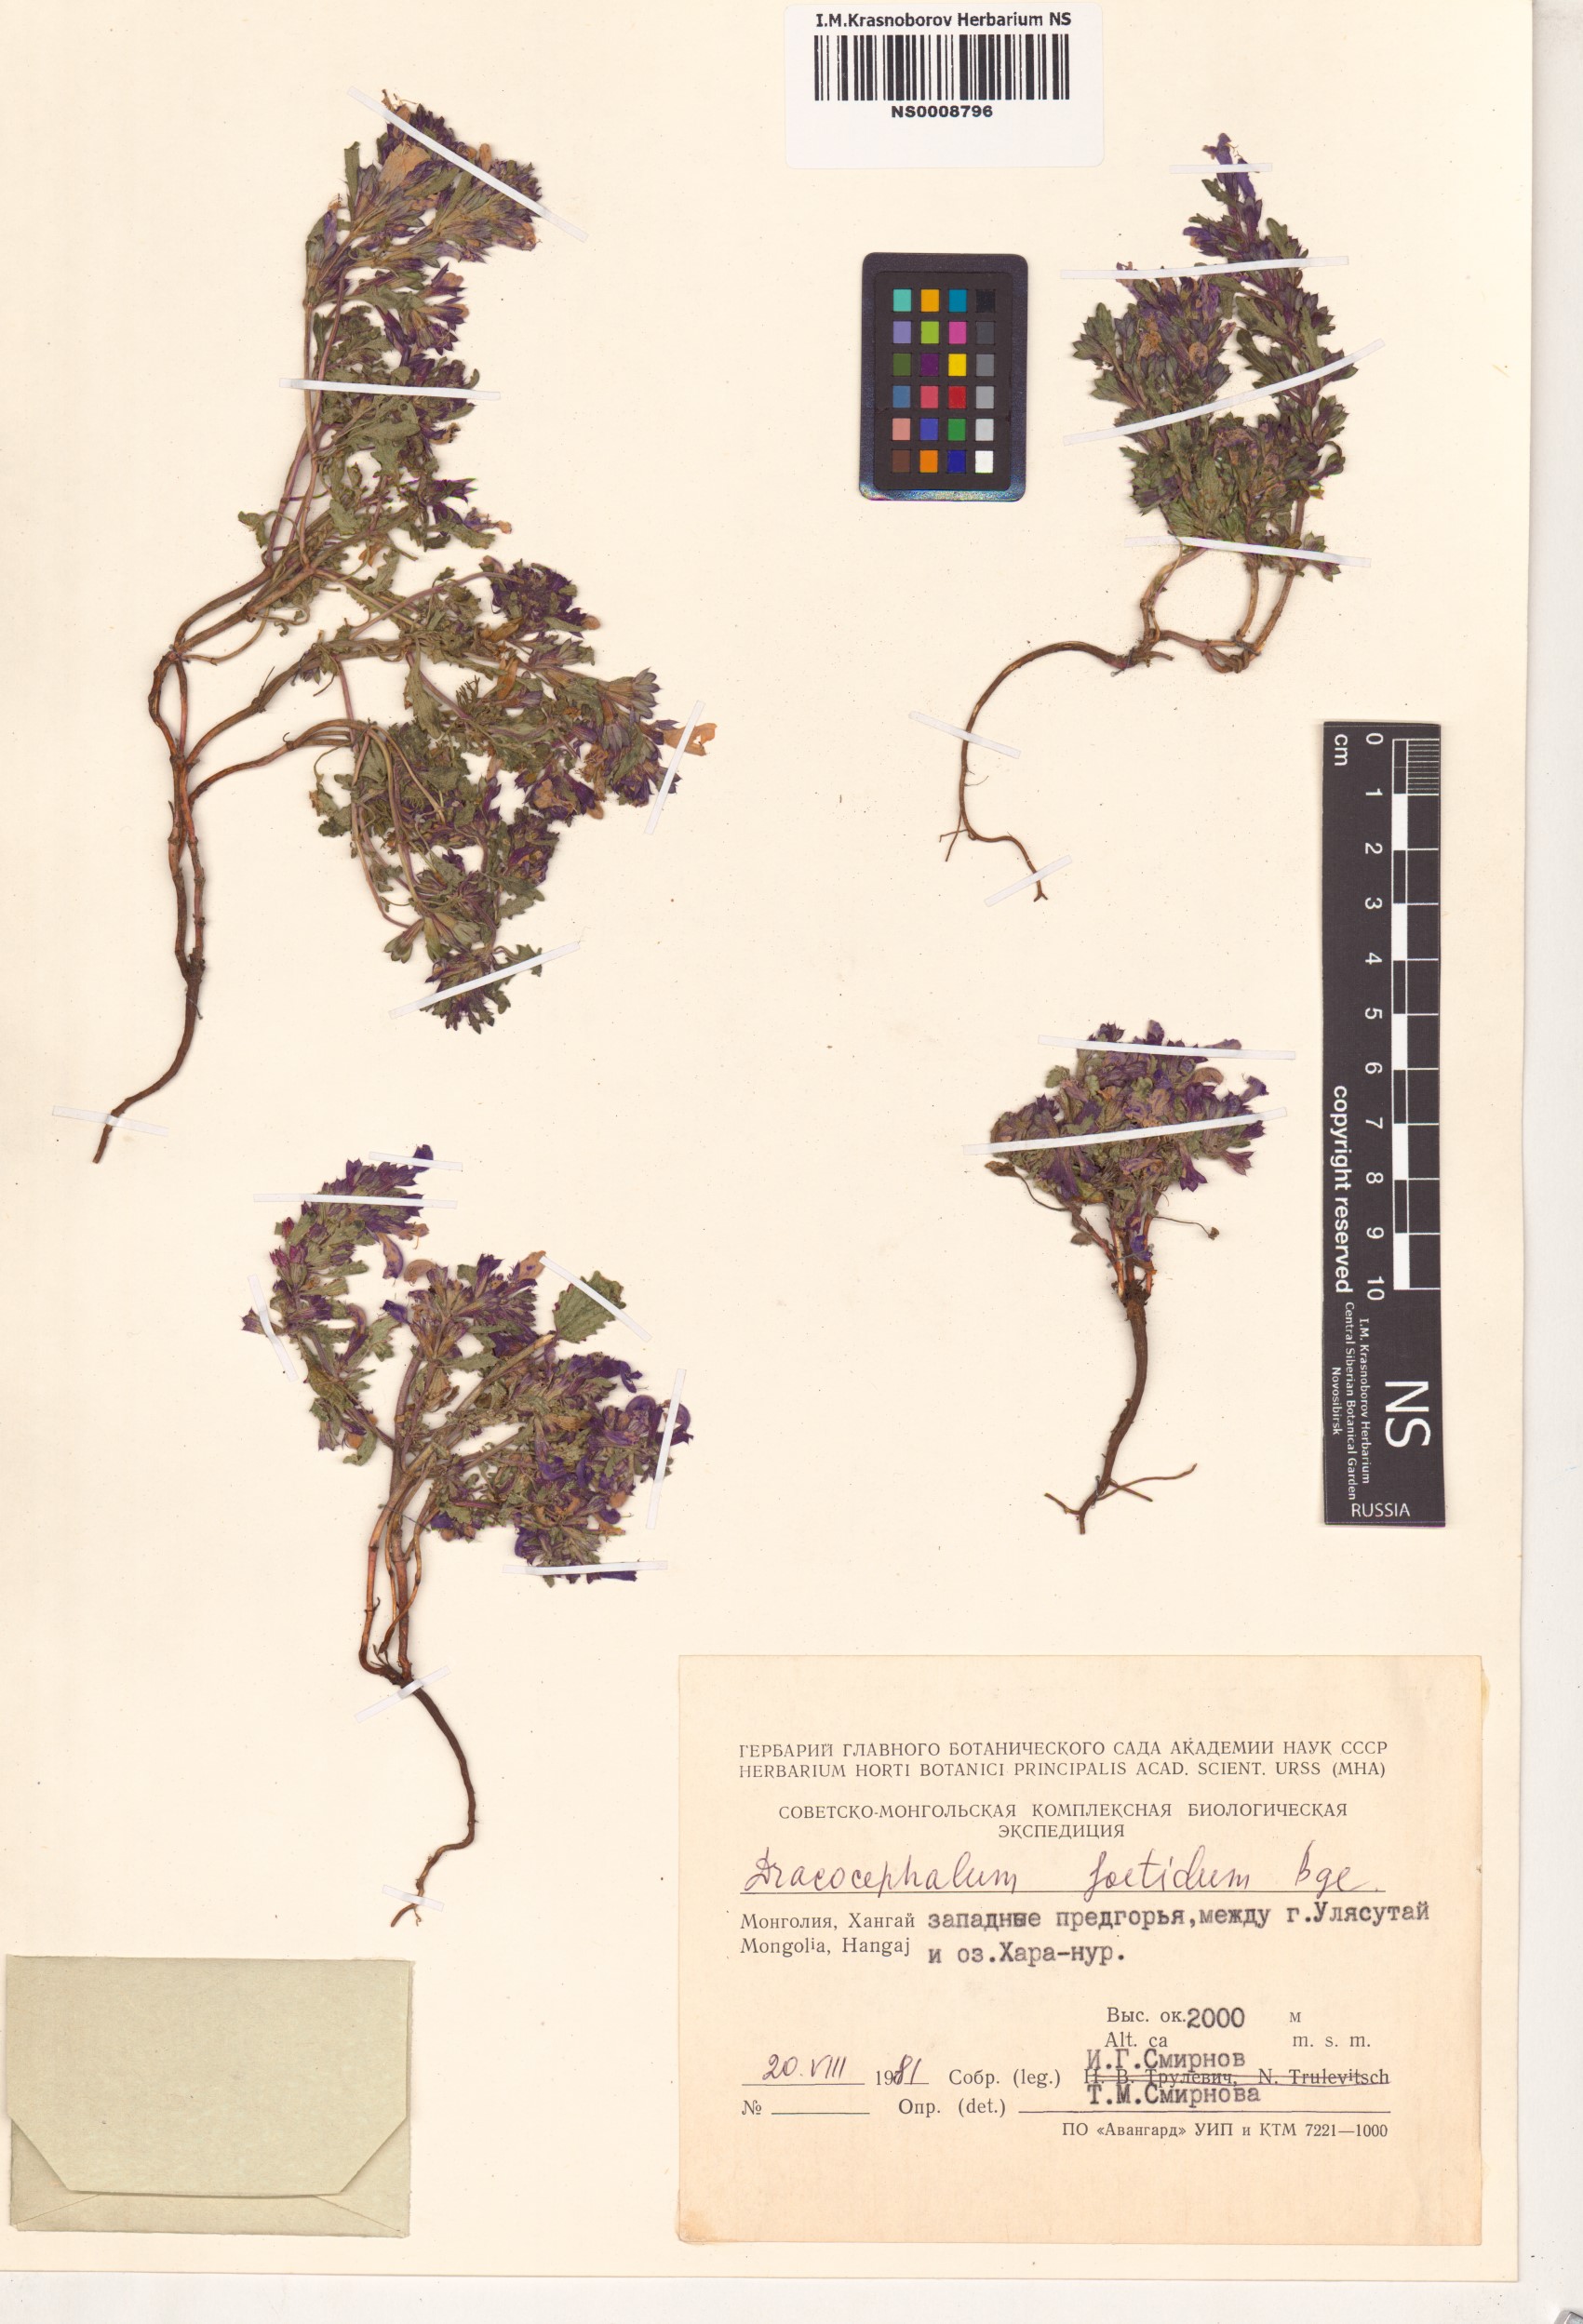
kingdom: Plantae
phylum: Tracheophyta
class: Magnoliopsida
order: Lamiales
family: Lamiaceae
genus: Dracocephalum
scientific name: Dracocephalum foetidum
